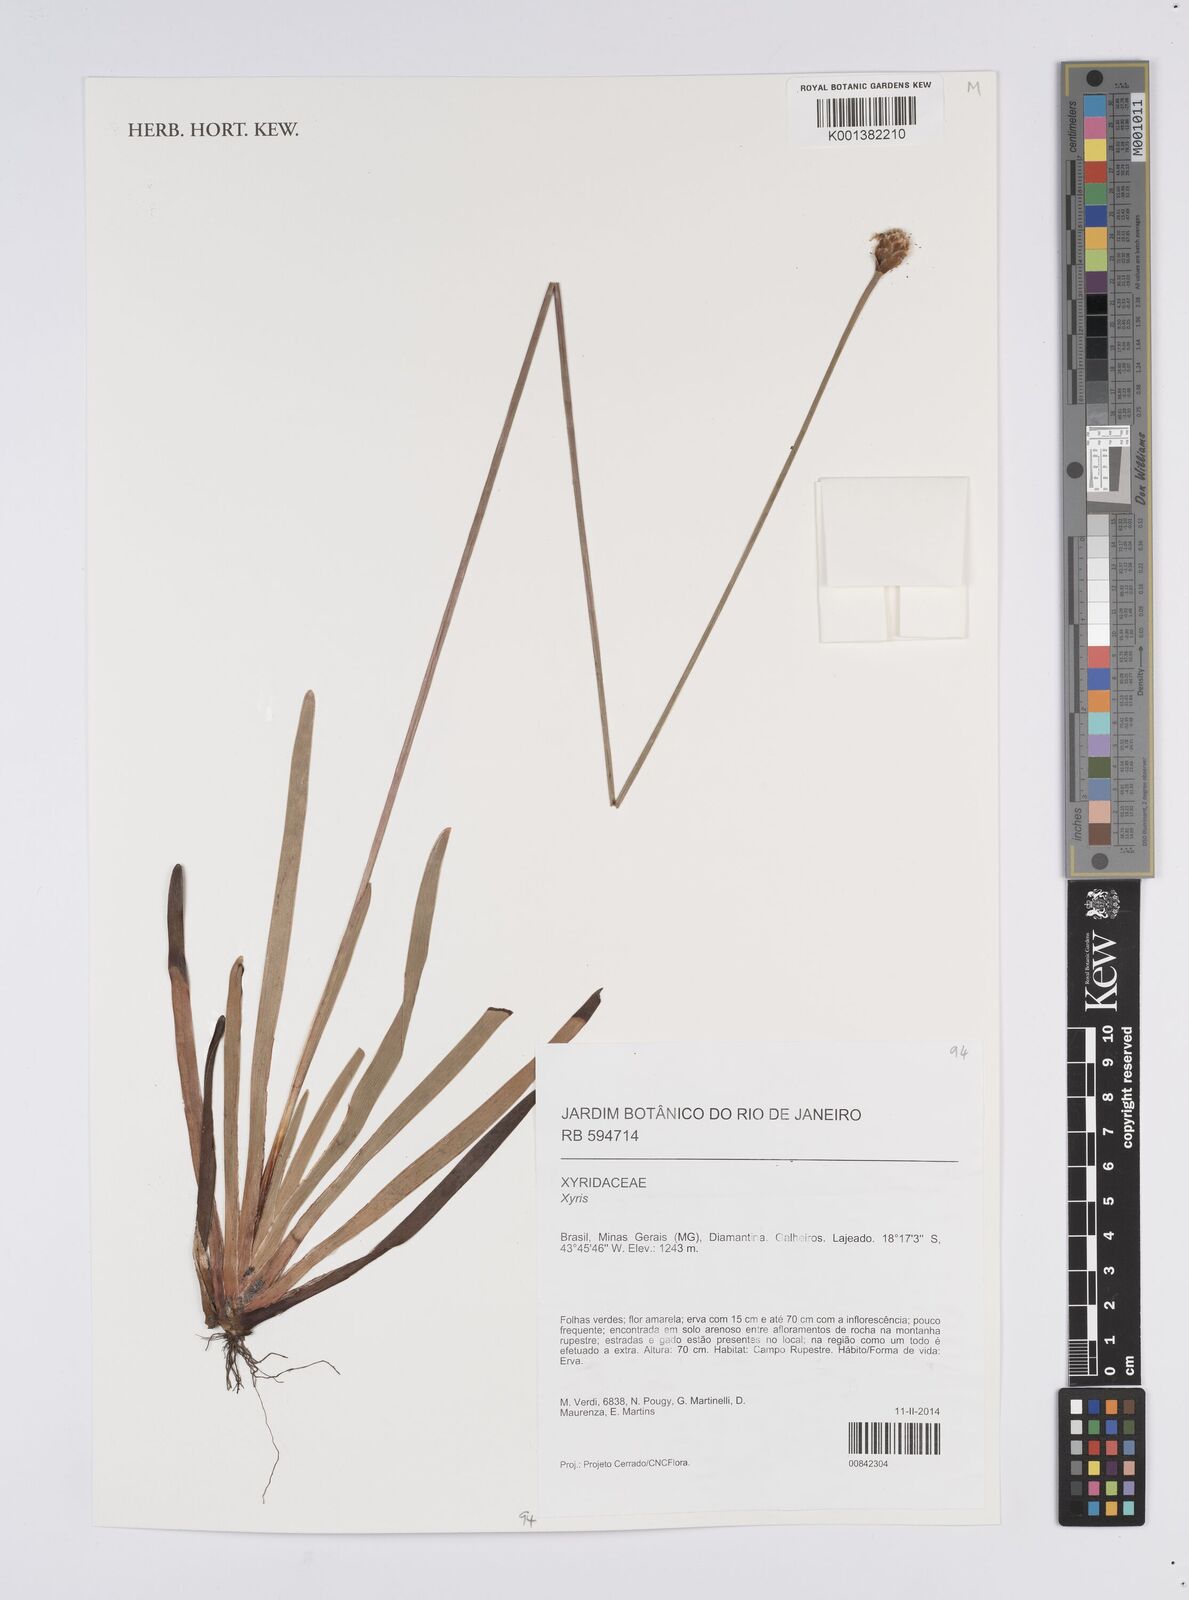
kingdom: Plantae
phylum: Tracheophyta
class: Liliopsida
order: Poales
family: Xyridaceae
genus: Xyris
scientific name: Xyris
